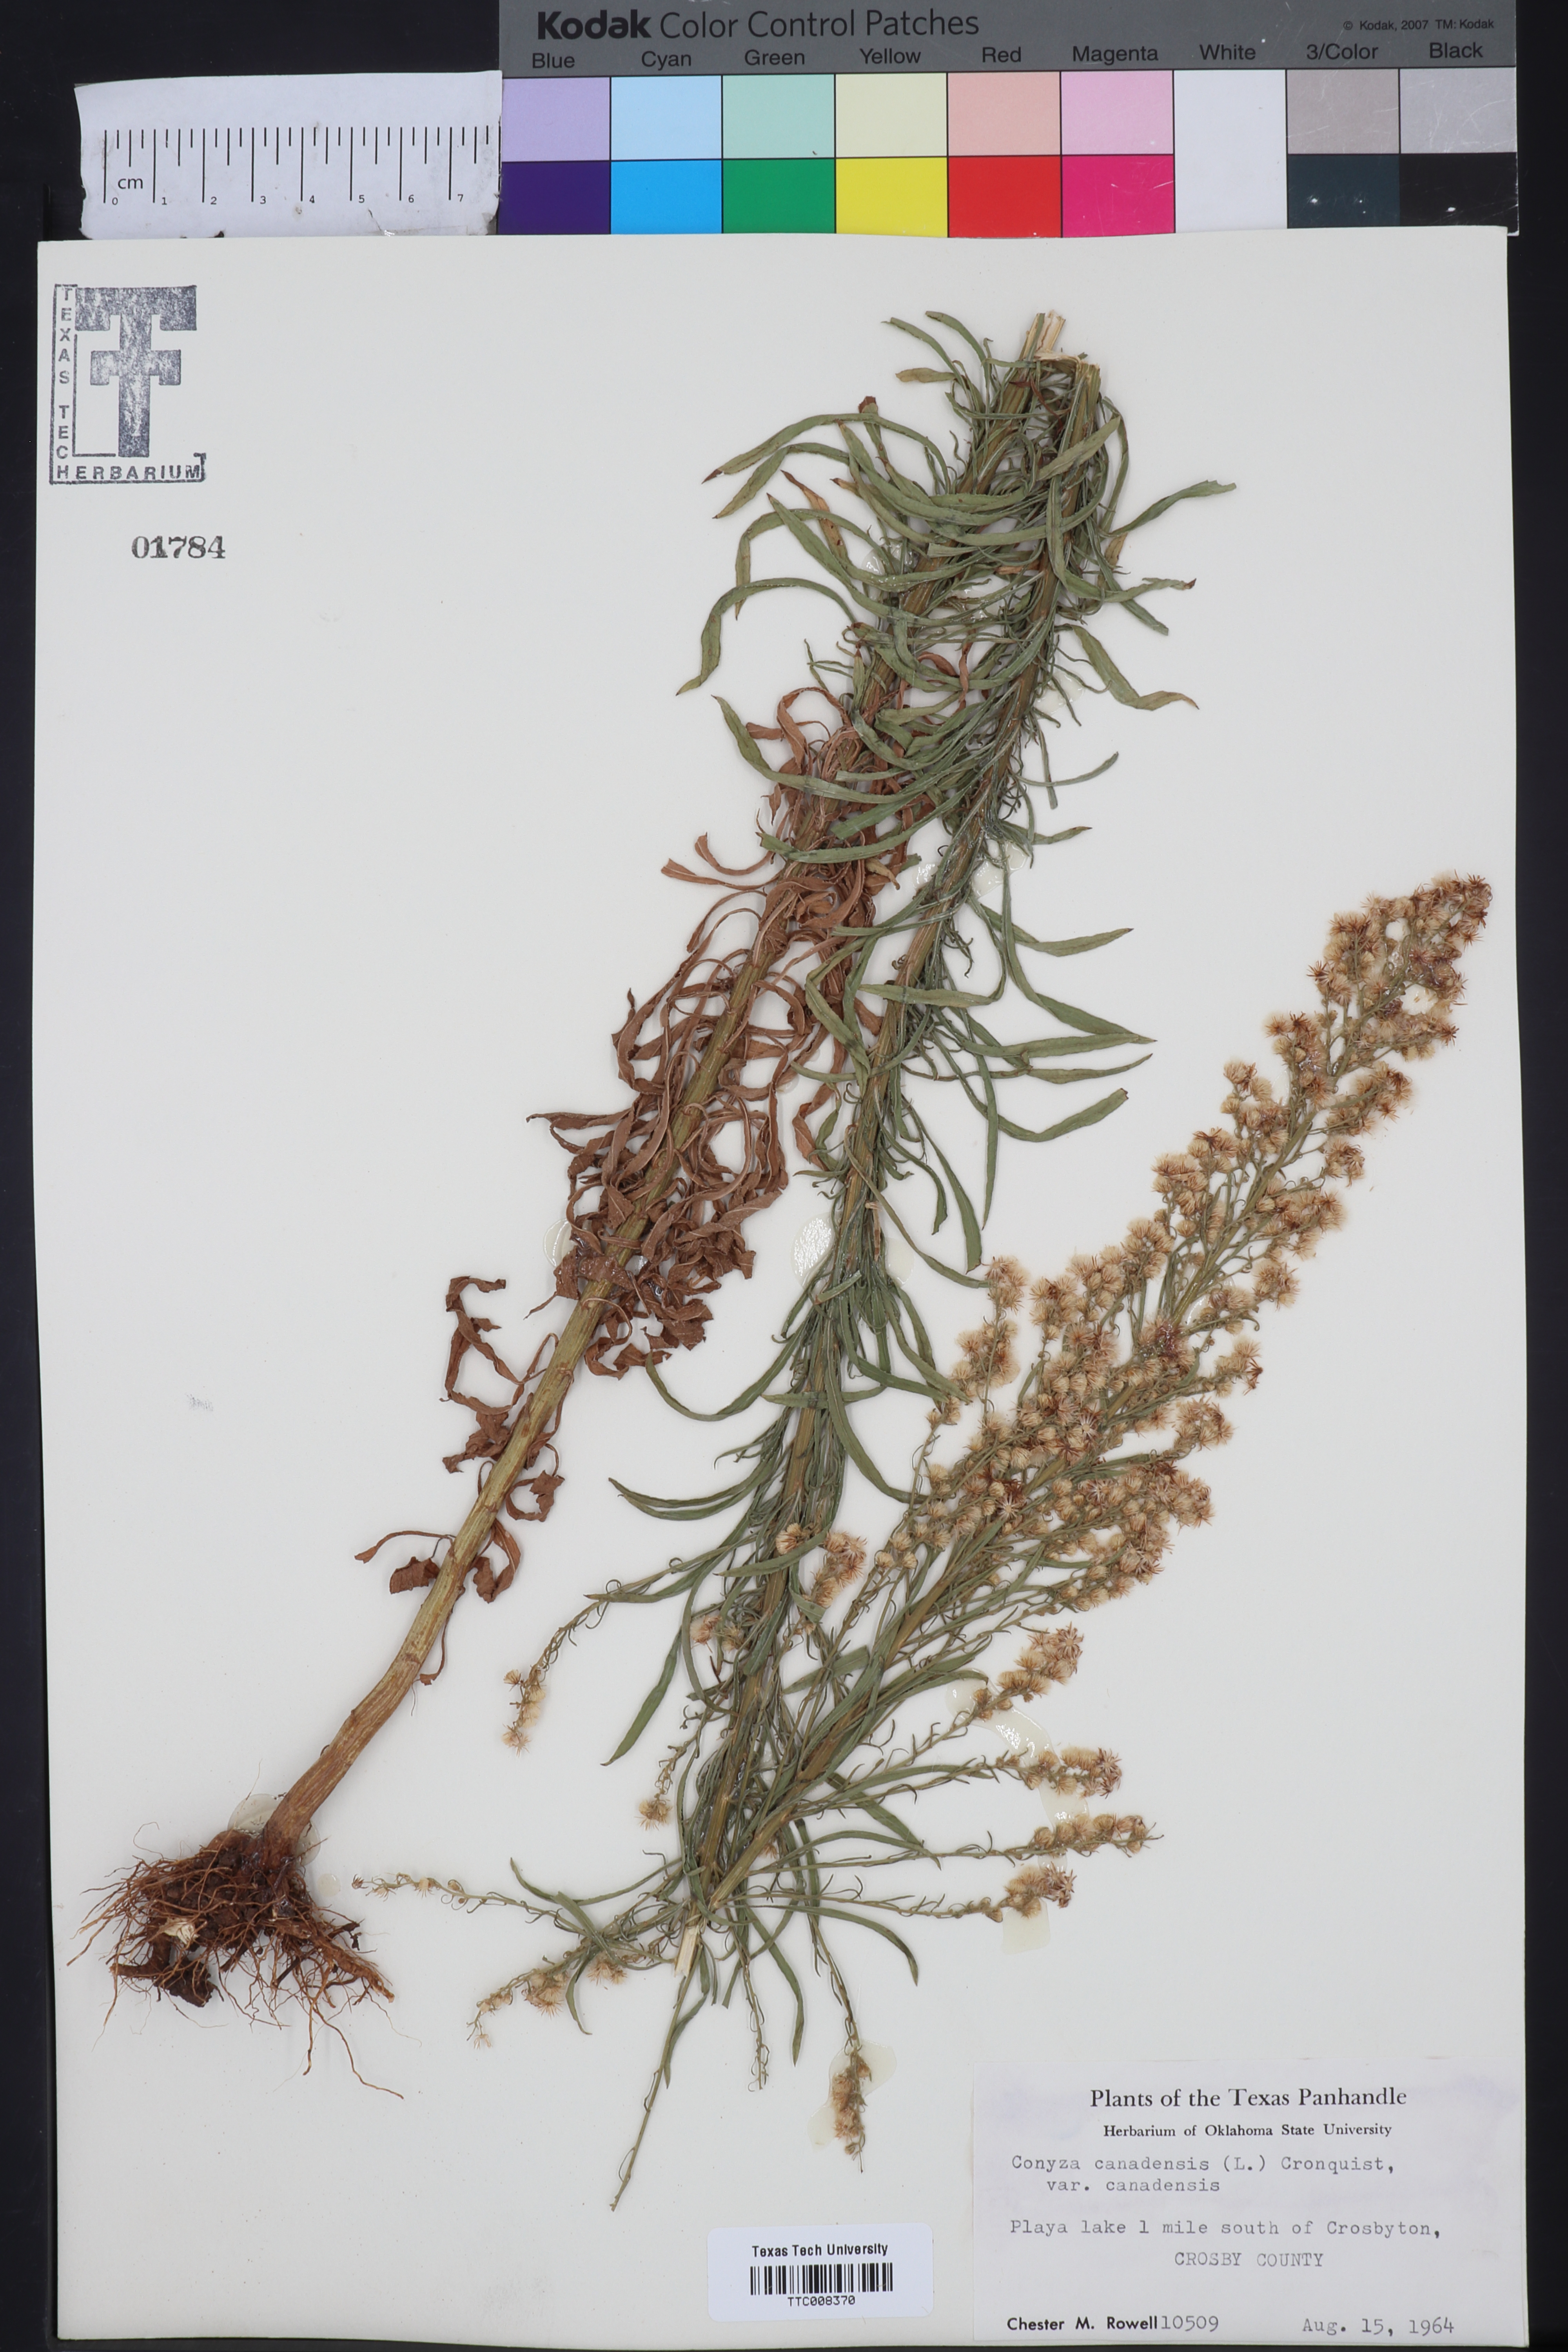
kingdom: Plantae
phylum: Tracheophyta
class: Magnoliopsida
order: Asterales
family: Asteraceae
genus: Erigeron
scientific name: Erigeron canadensis
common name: Canadian fleabane
